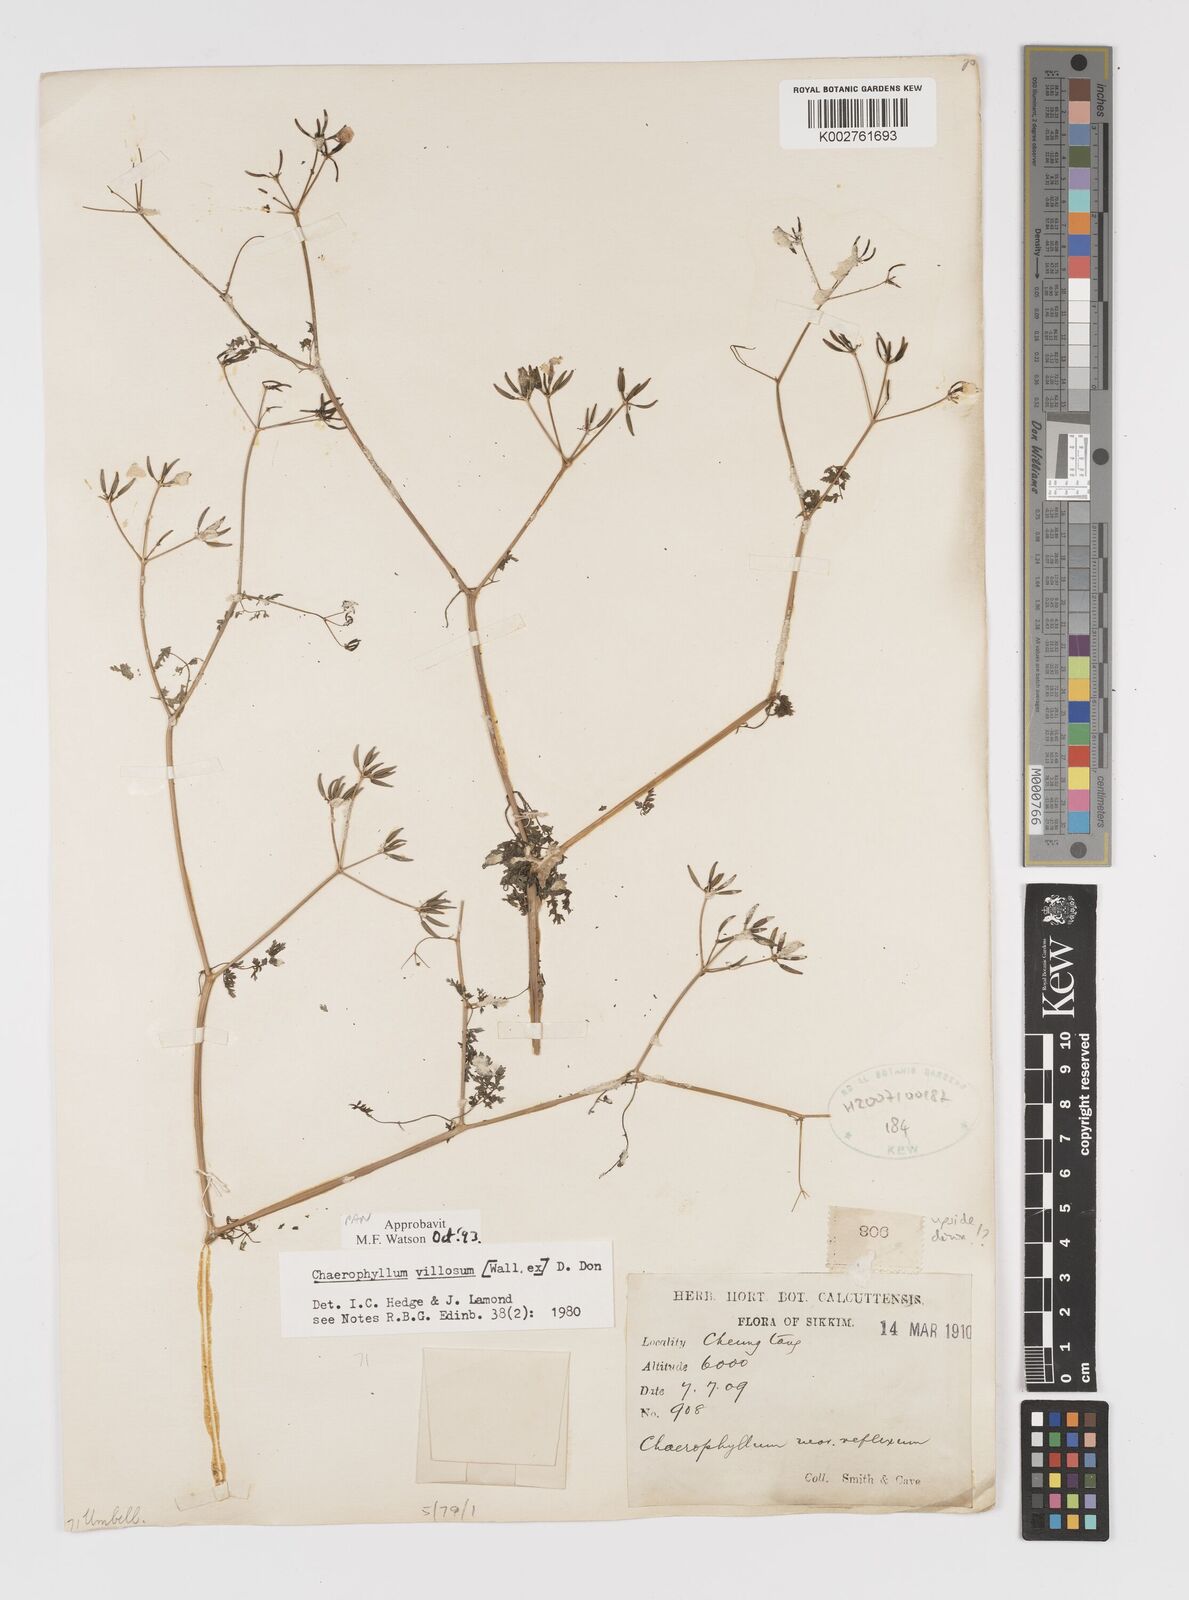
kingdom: Plantae
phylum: Tracheophyta
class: Magnoliopsida
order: Apiales
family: Apiaceae
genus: Chaerophyllum
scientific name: Chaerophyllum villosum
